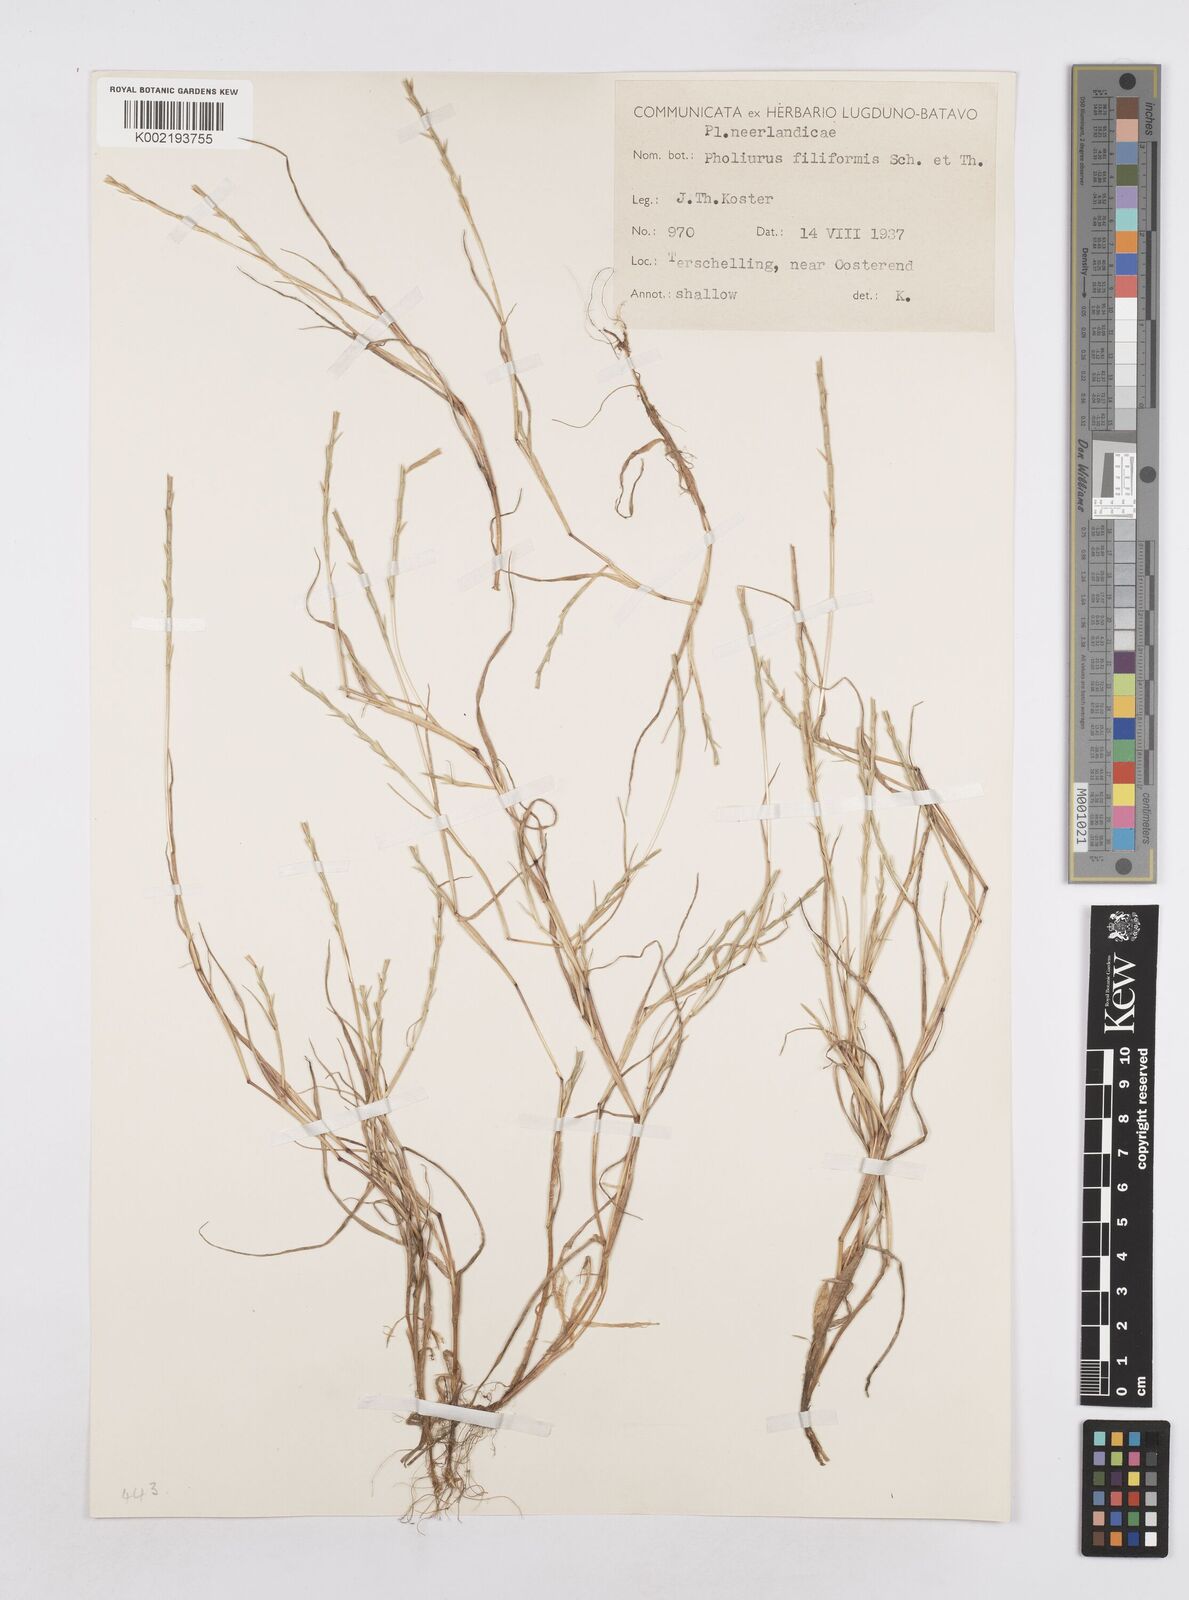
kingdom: Plantae
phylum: Tracheophyta
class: Liliopsida
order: Poales
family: Poaceae
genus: Parapholis
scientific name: Parapholis strigosa
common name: Hard-grass
